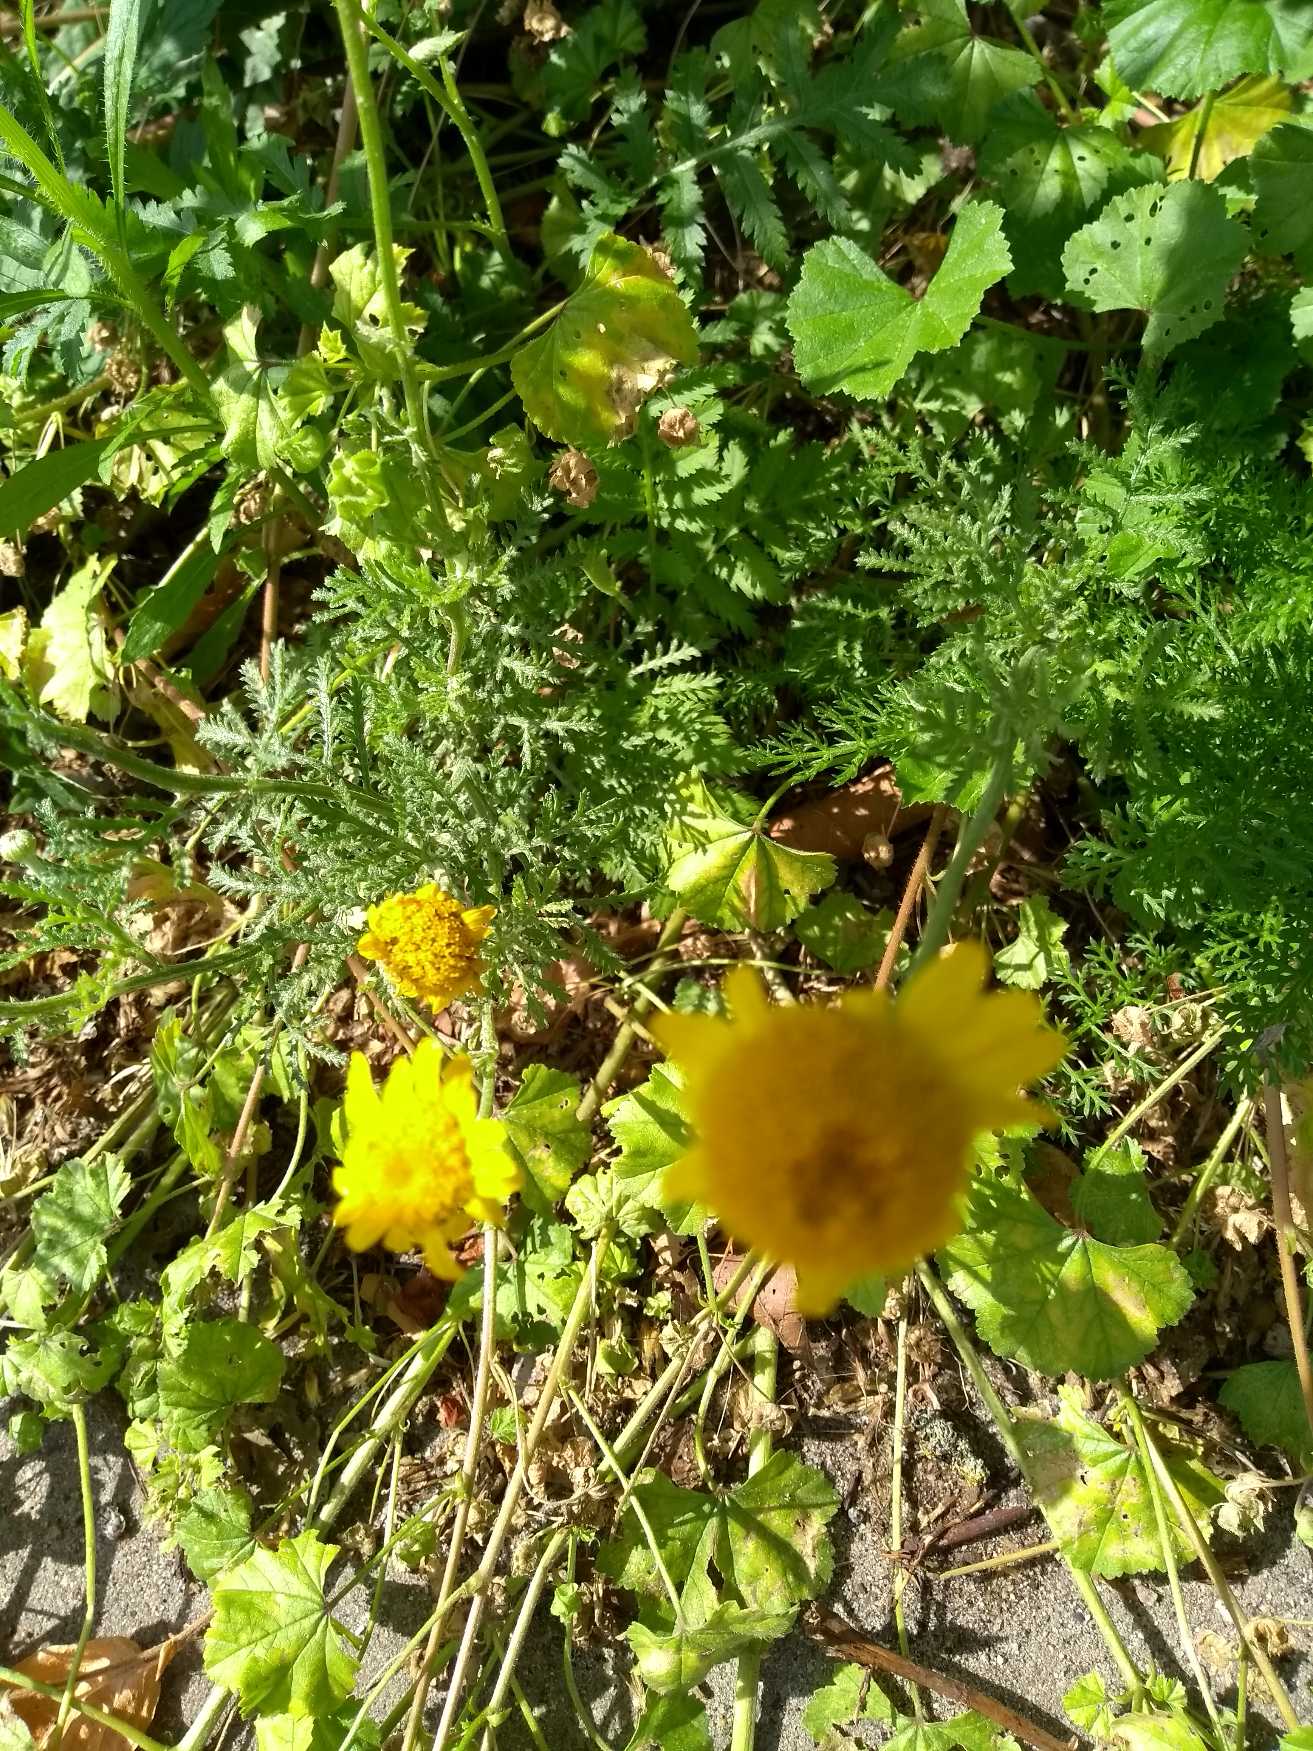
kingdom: Plantae
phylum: Tracheophyta
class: Magnoliopsida
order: Asterales
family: Asteraceae
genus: Cota
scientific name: Cota tinctoria
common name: Farve-gåseurt
